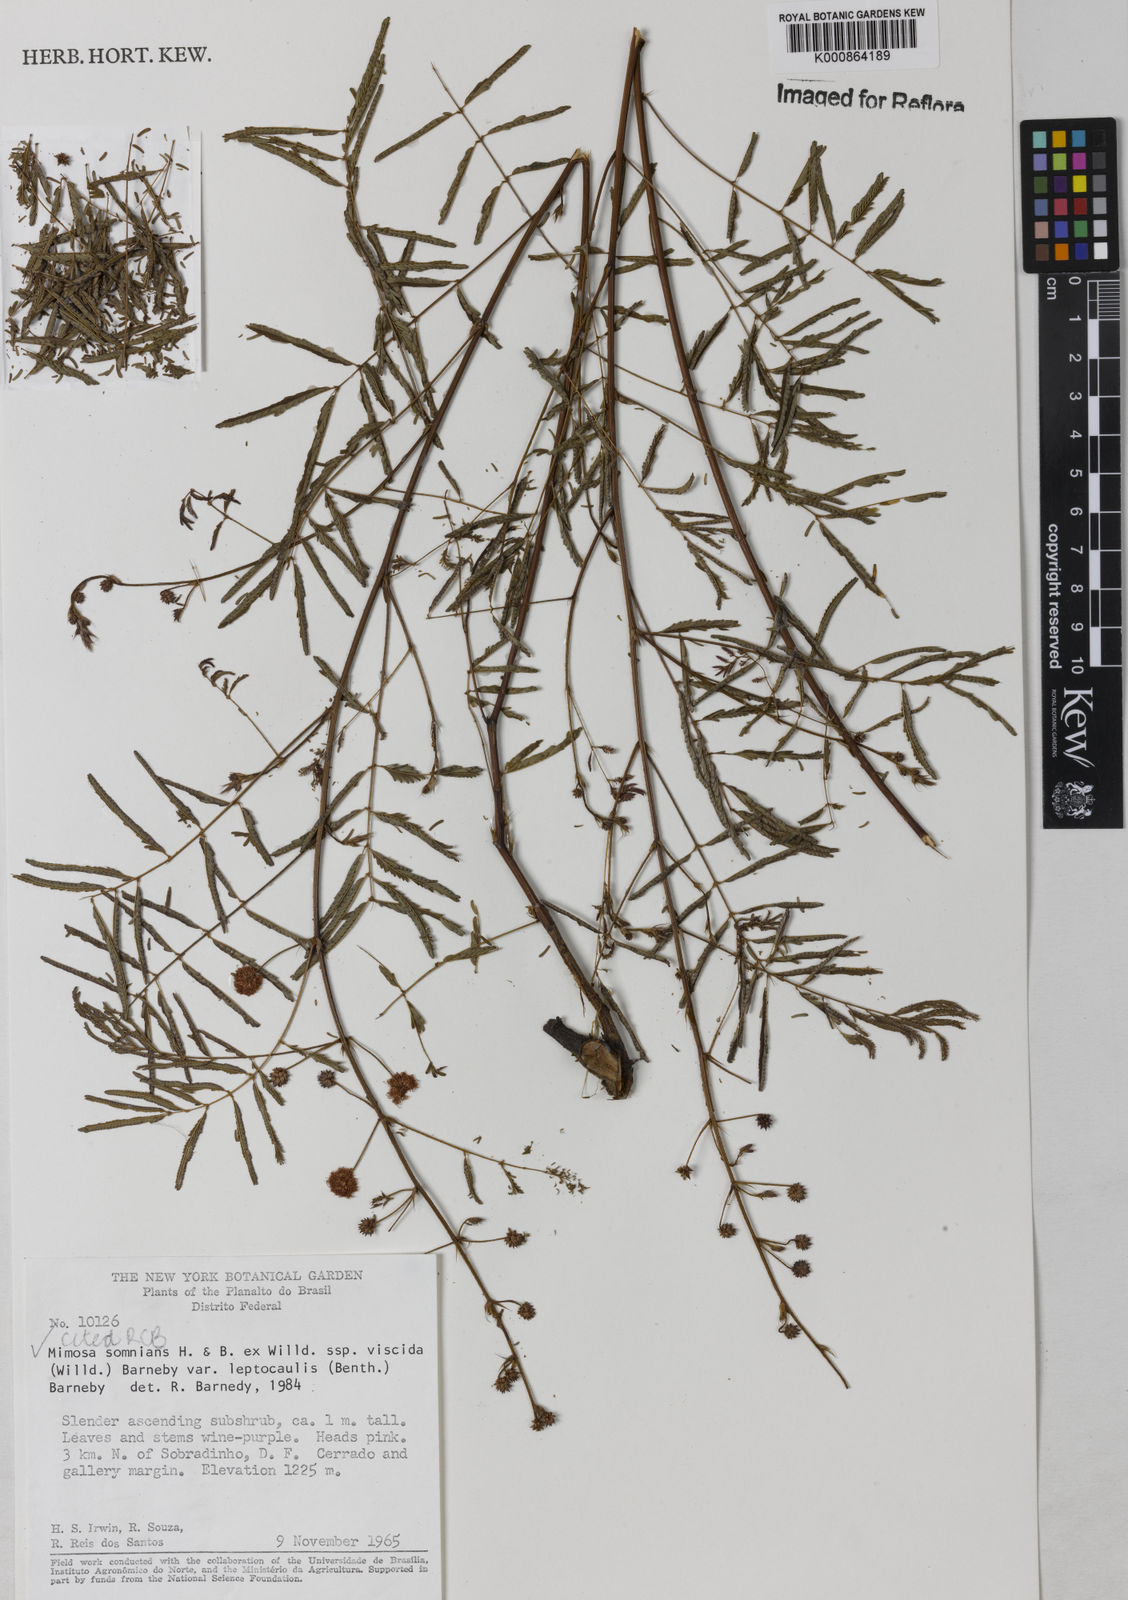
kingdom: Plantae
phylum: Tracheophyta
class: Magnoliopsida
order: Fabales
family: Fabaceae
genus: Mimosa
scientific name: Mimosa somnians
